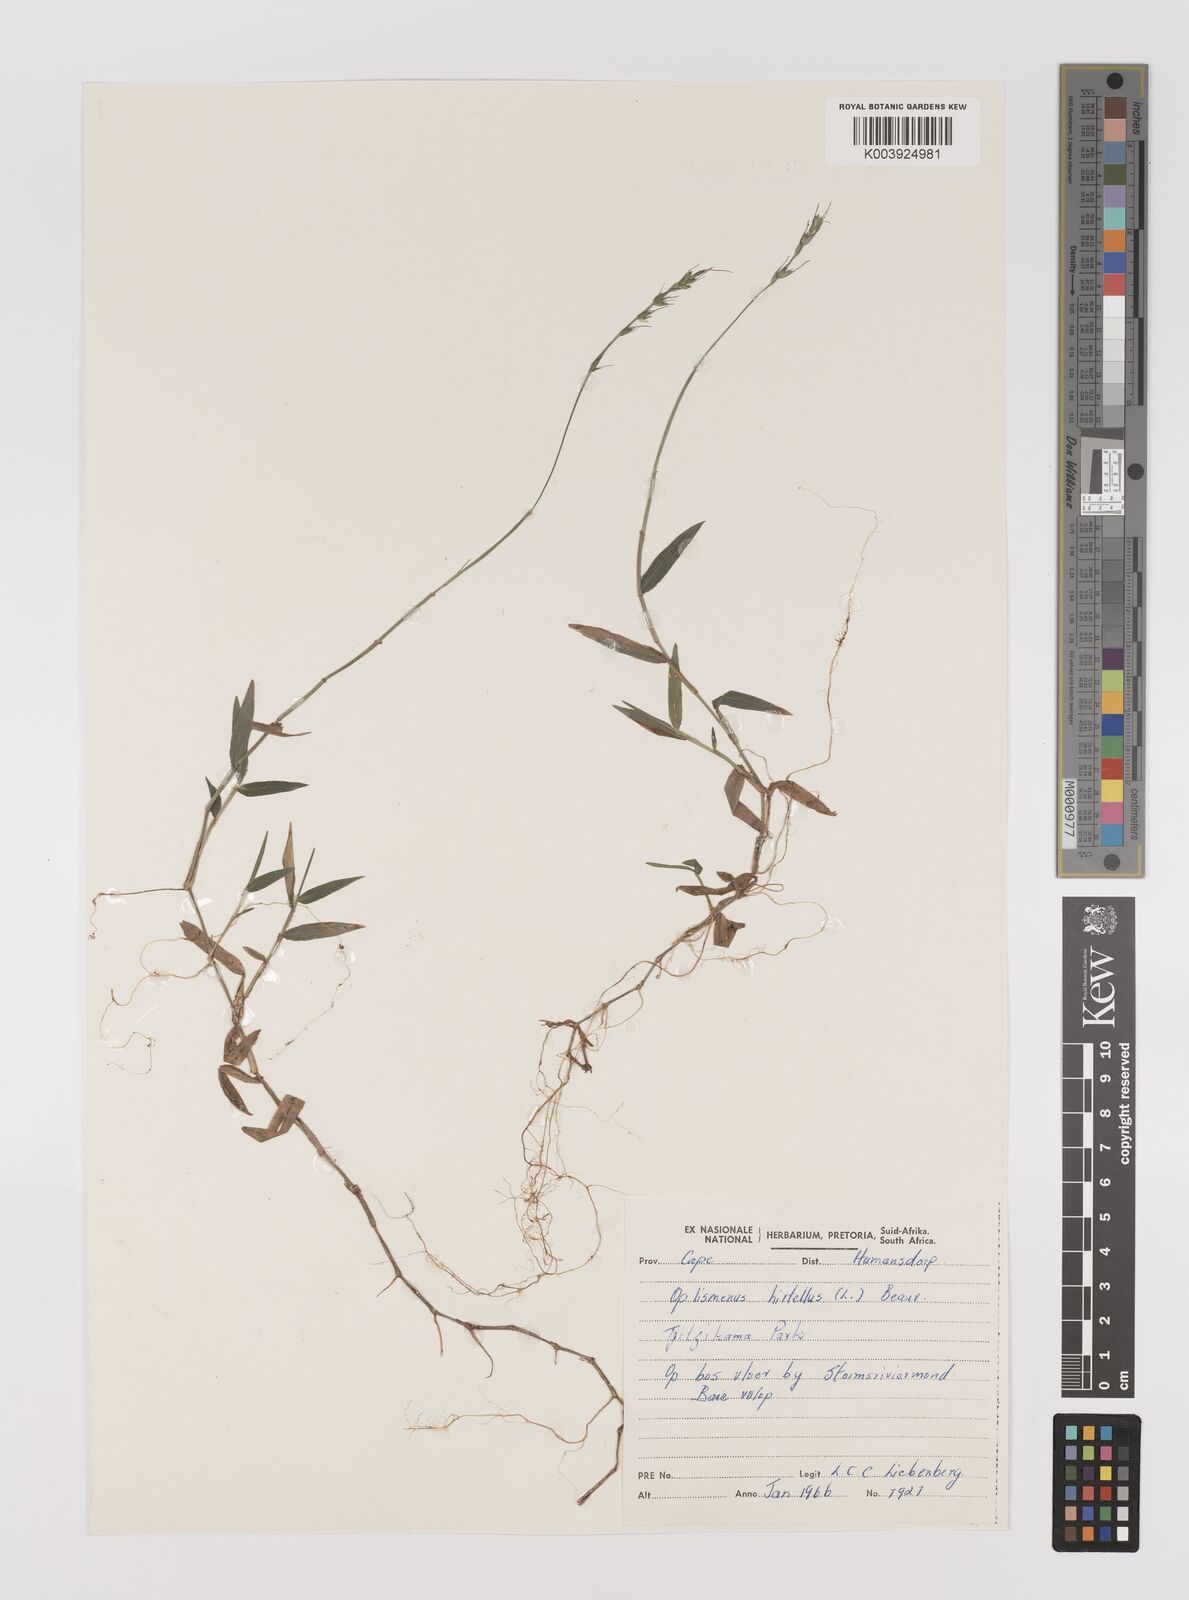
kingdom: Plantae
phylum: Tracheophyta
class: Liliopsida
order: Poales
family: Poaceae
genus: Oplismenus
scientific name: Oplismenus hirtellus
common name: Basketgrass
